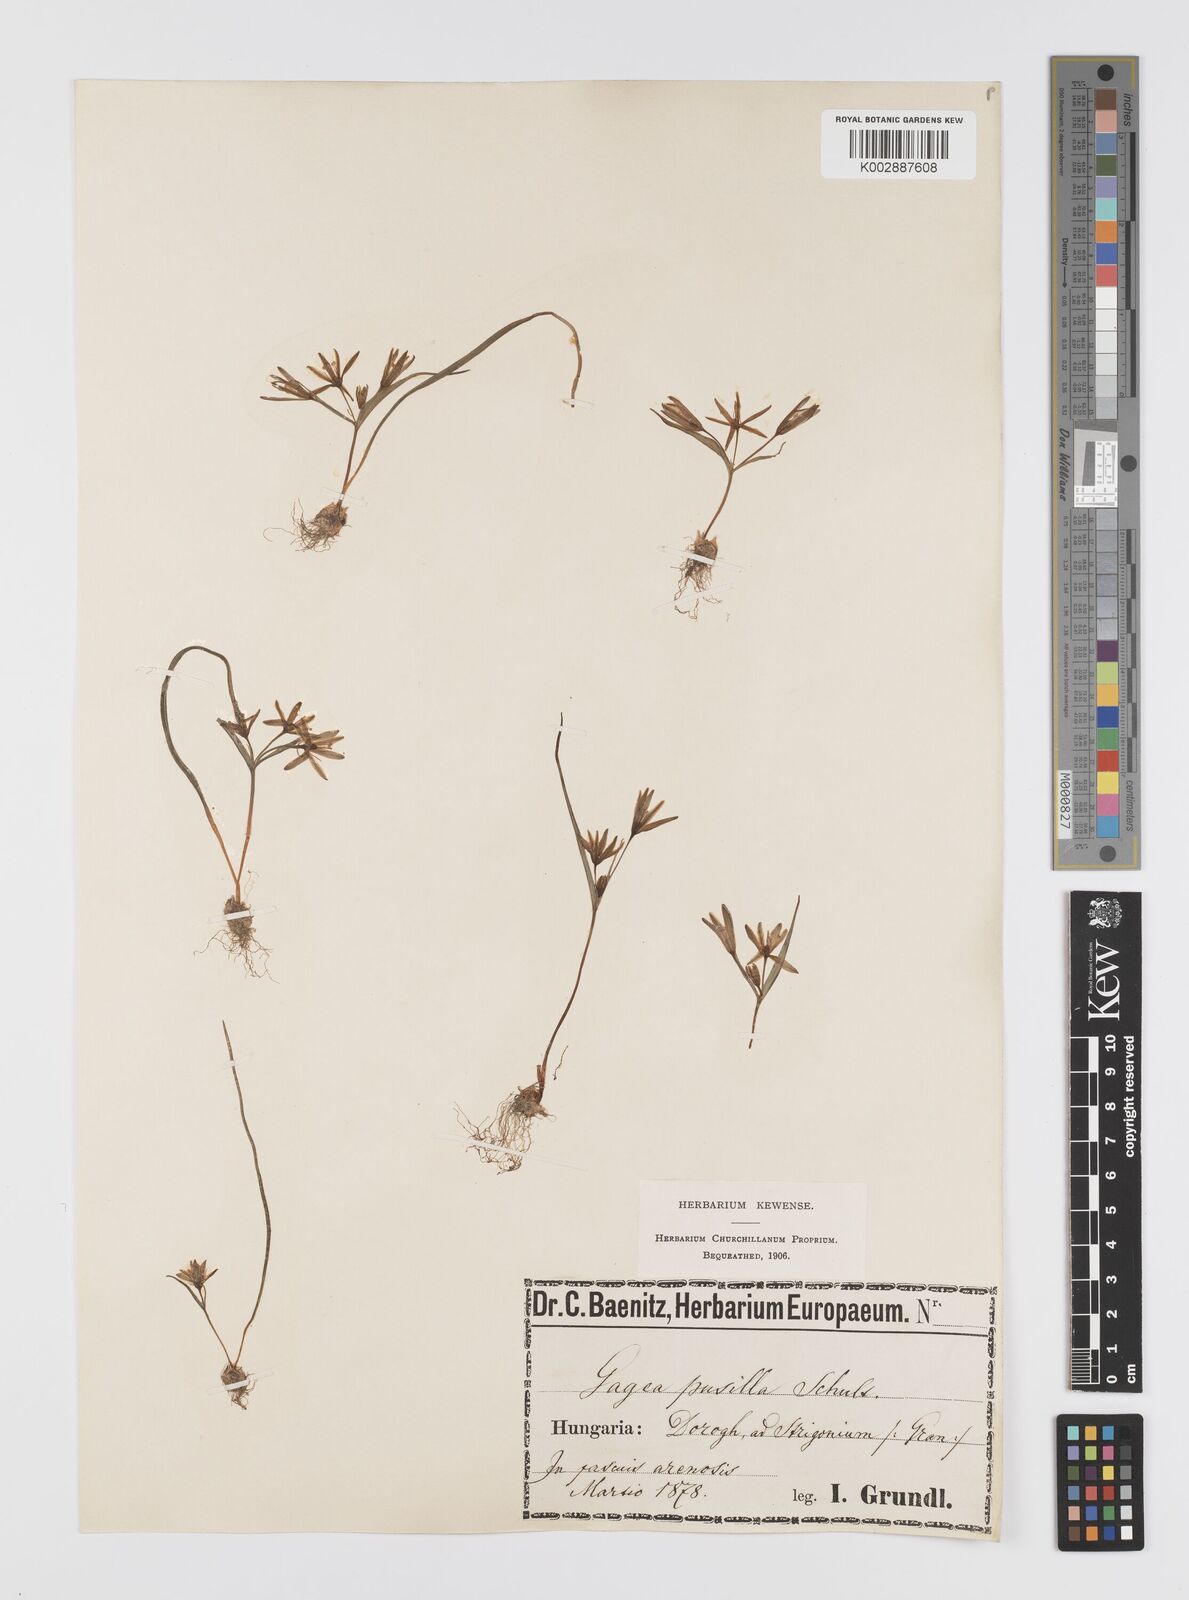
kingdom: Plantae
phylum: Tracheophyta
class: Liliopsida
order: Liliales
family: Liliaceae
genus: Gagea
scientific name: Gagea pusilla
